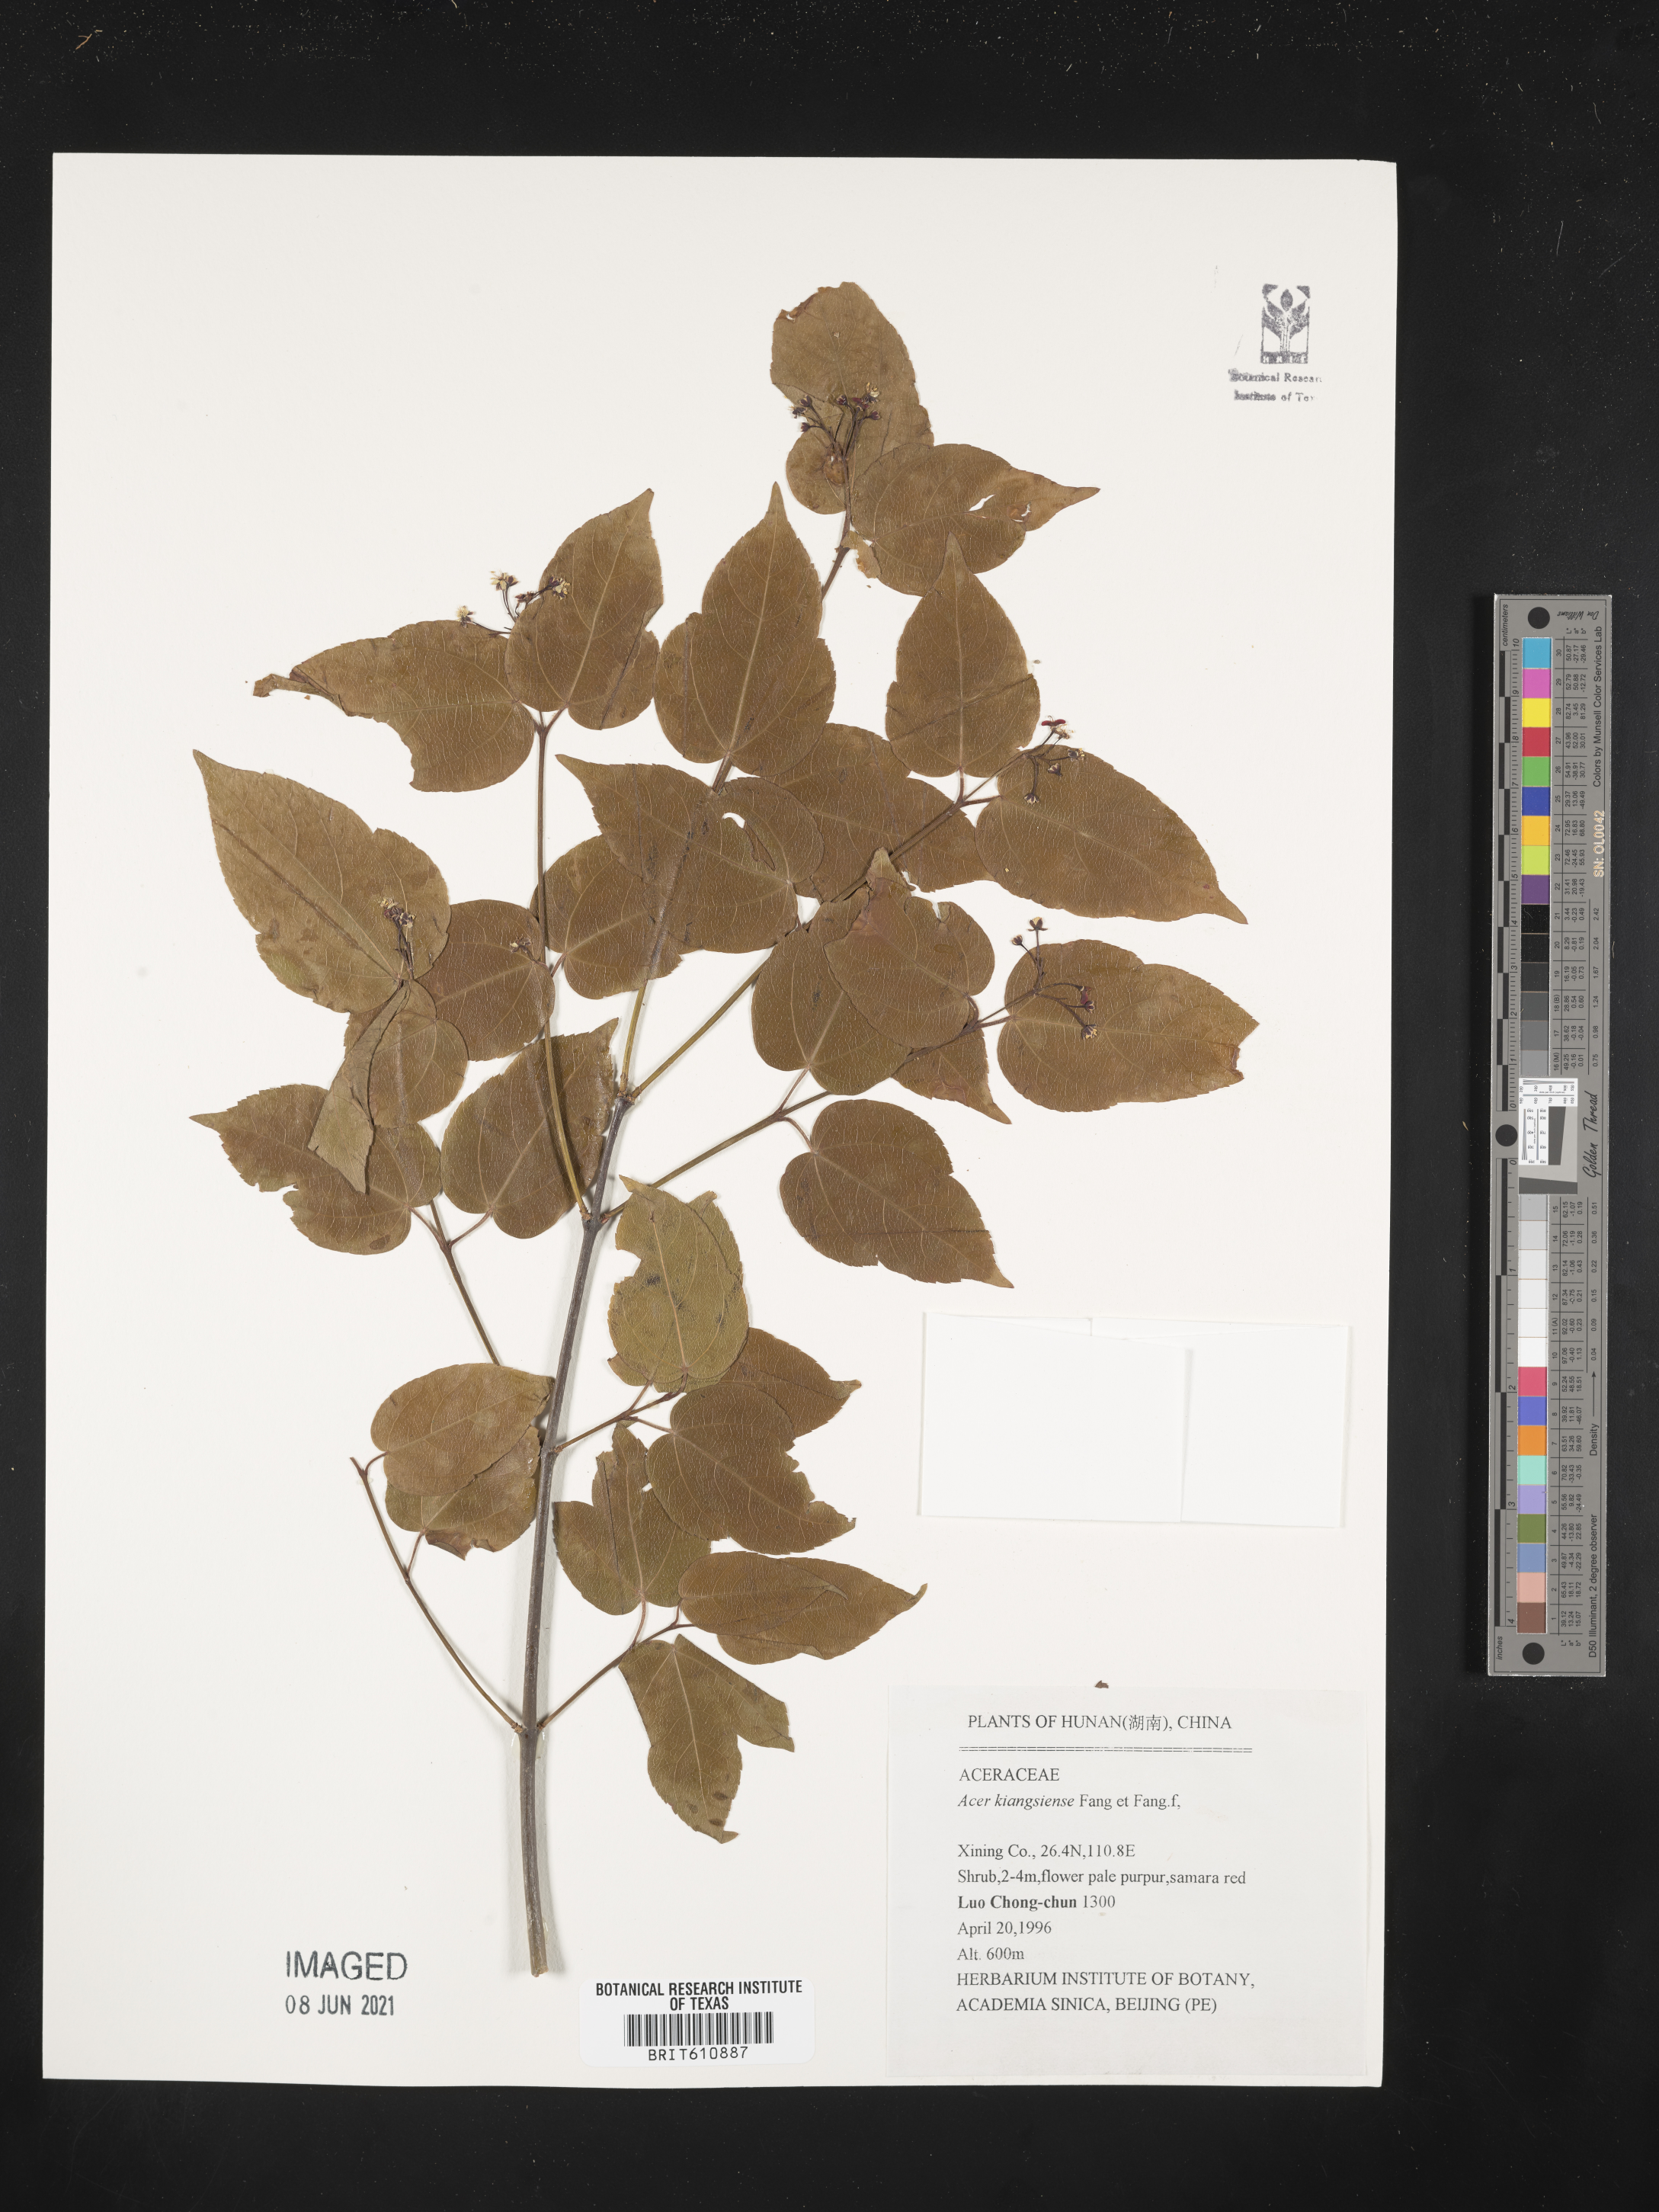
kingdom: Plantae
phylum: Tracheophyta
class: Magnoliopsida
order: Sapindales
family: Sapindaceae
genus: Acer
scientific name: Acer amplum
